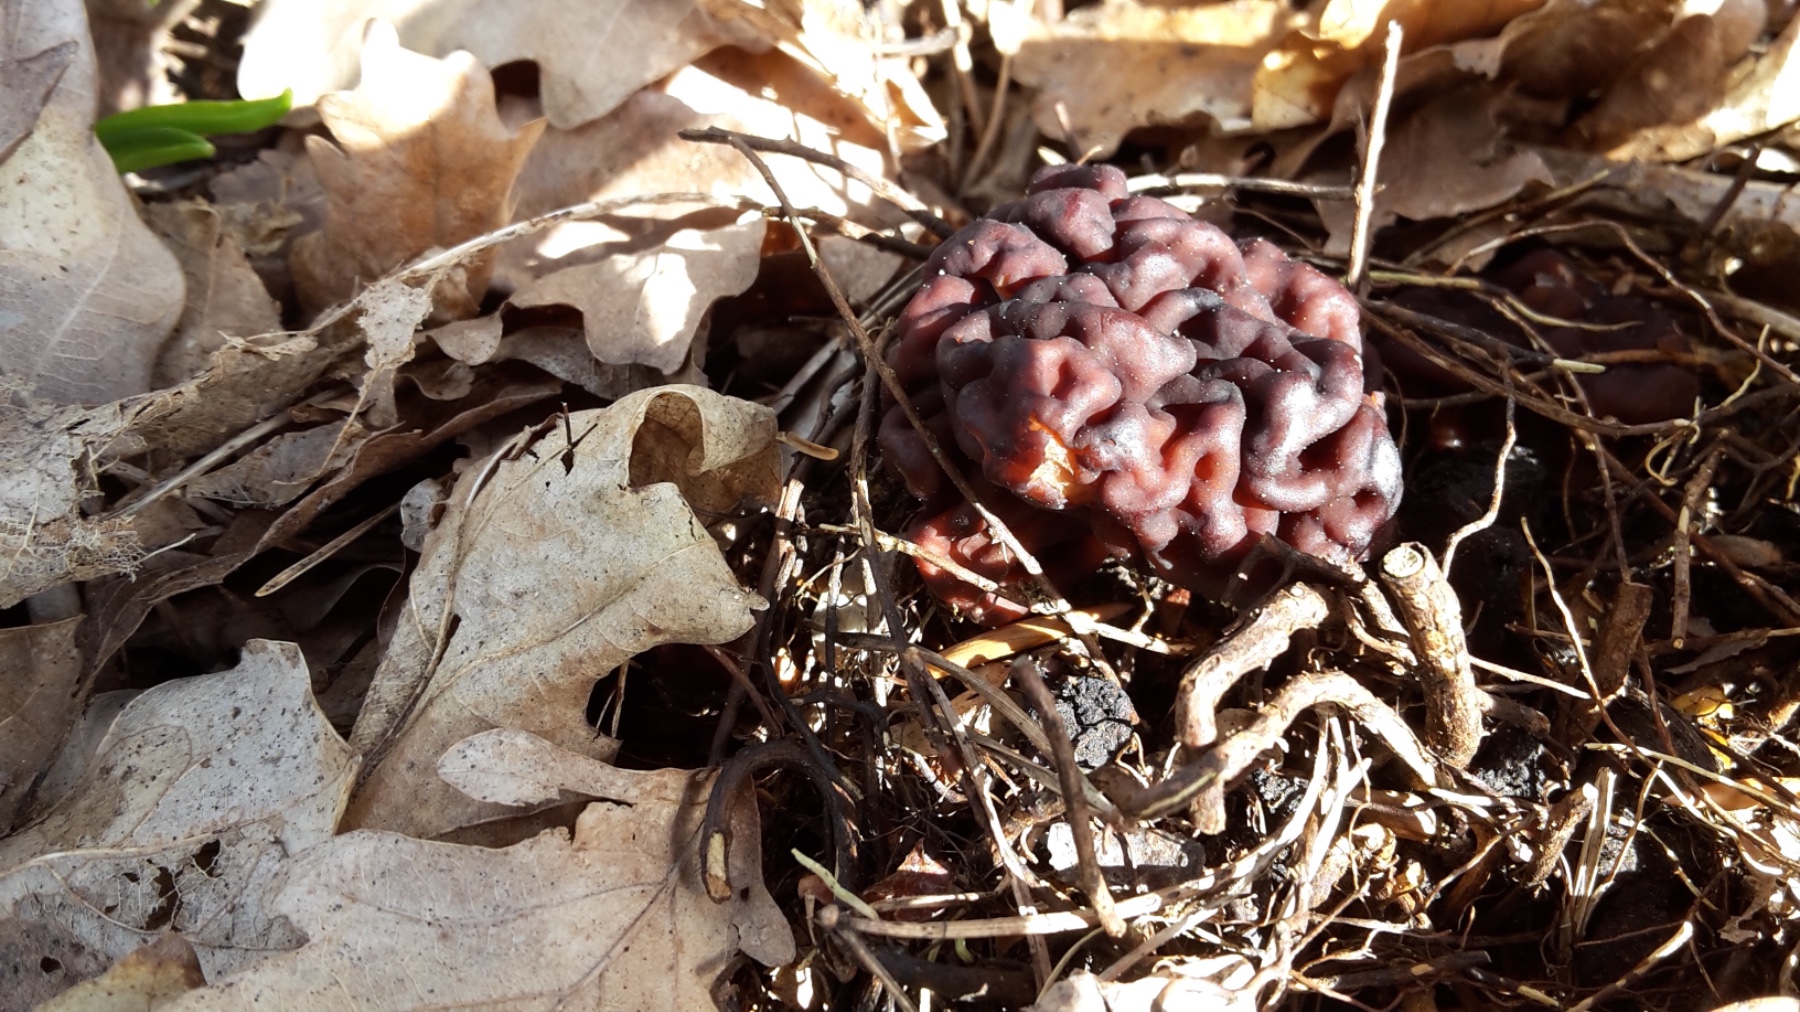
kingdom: Fungi
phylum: Ascomycota
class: Pezizomycetes
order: Pezizales
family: Discinaceae
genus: Gyromitra
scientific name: Gyromitra esculenta
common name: ægte stenmorkel
